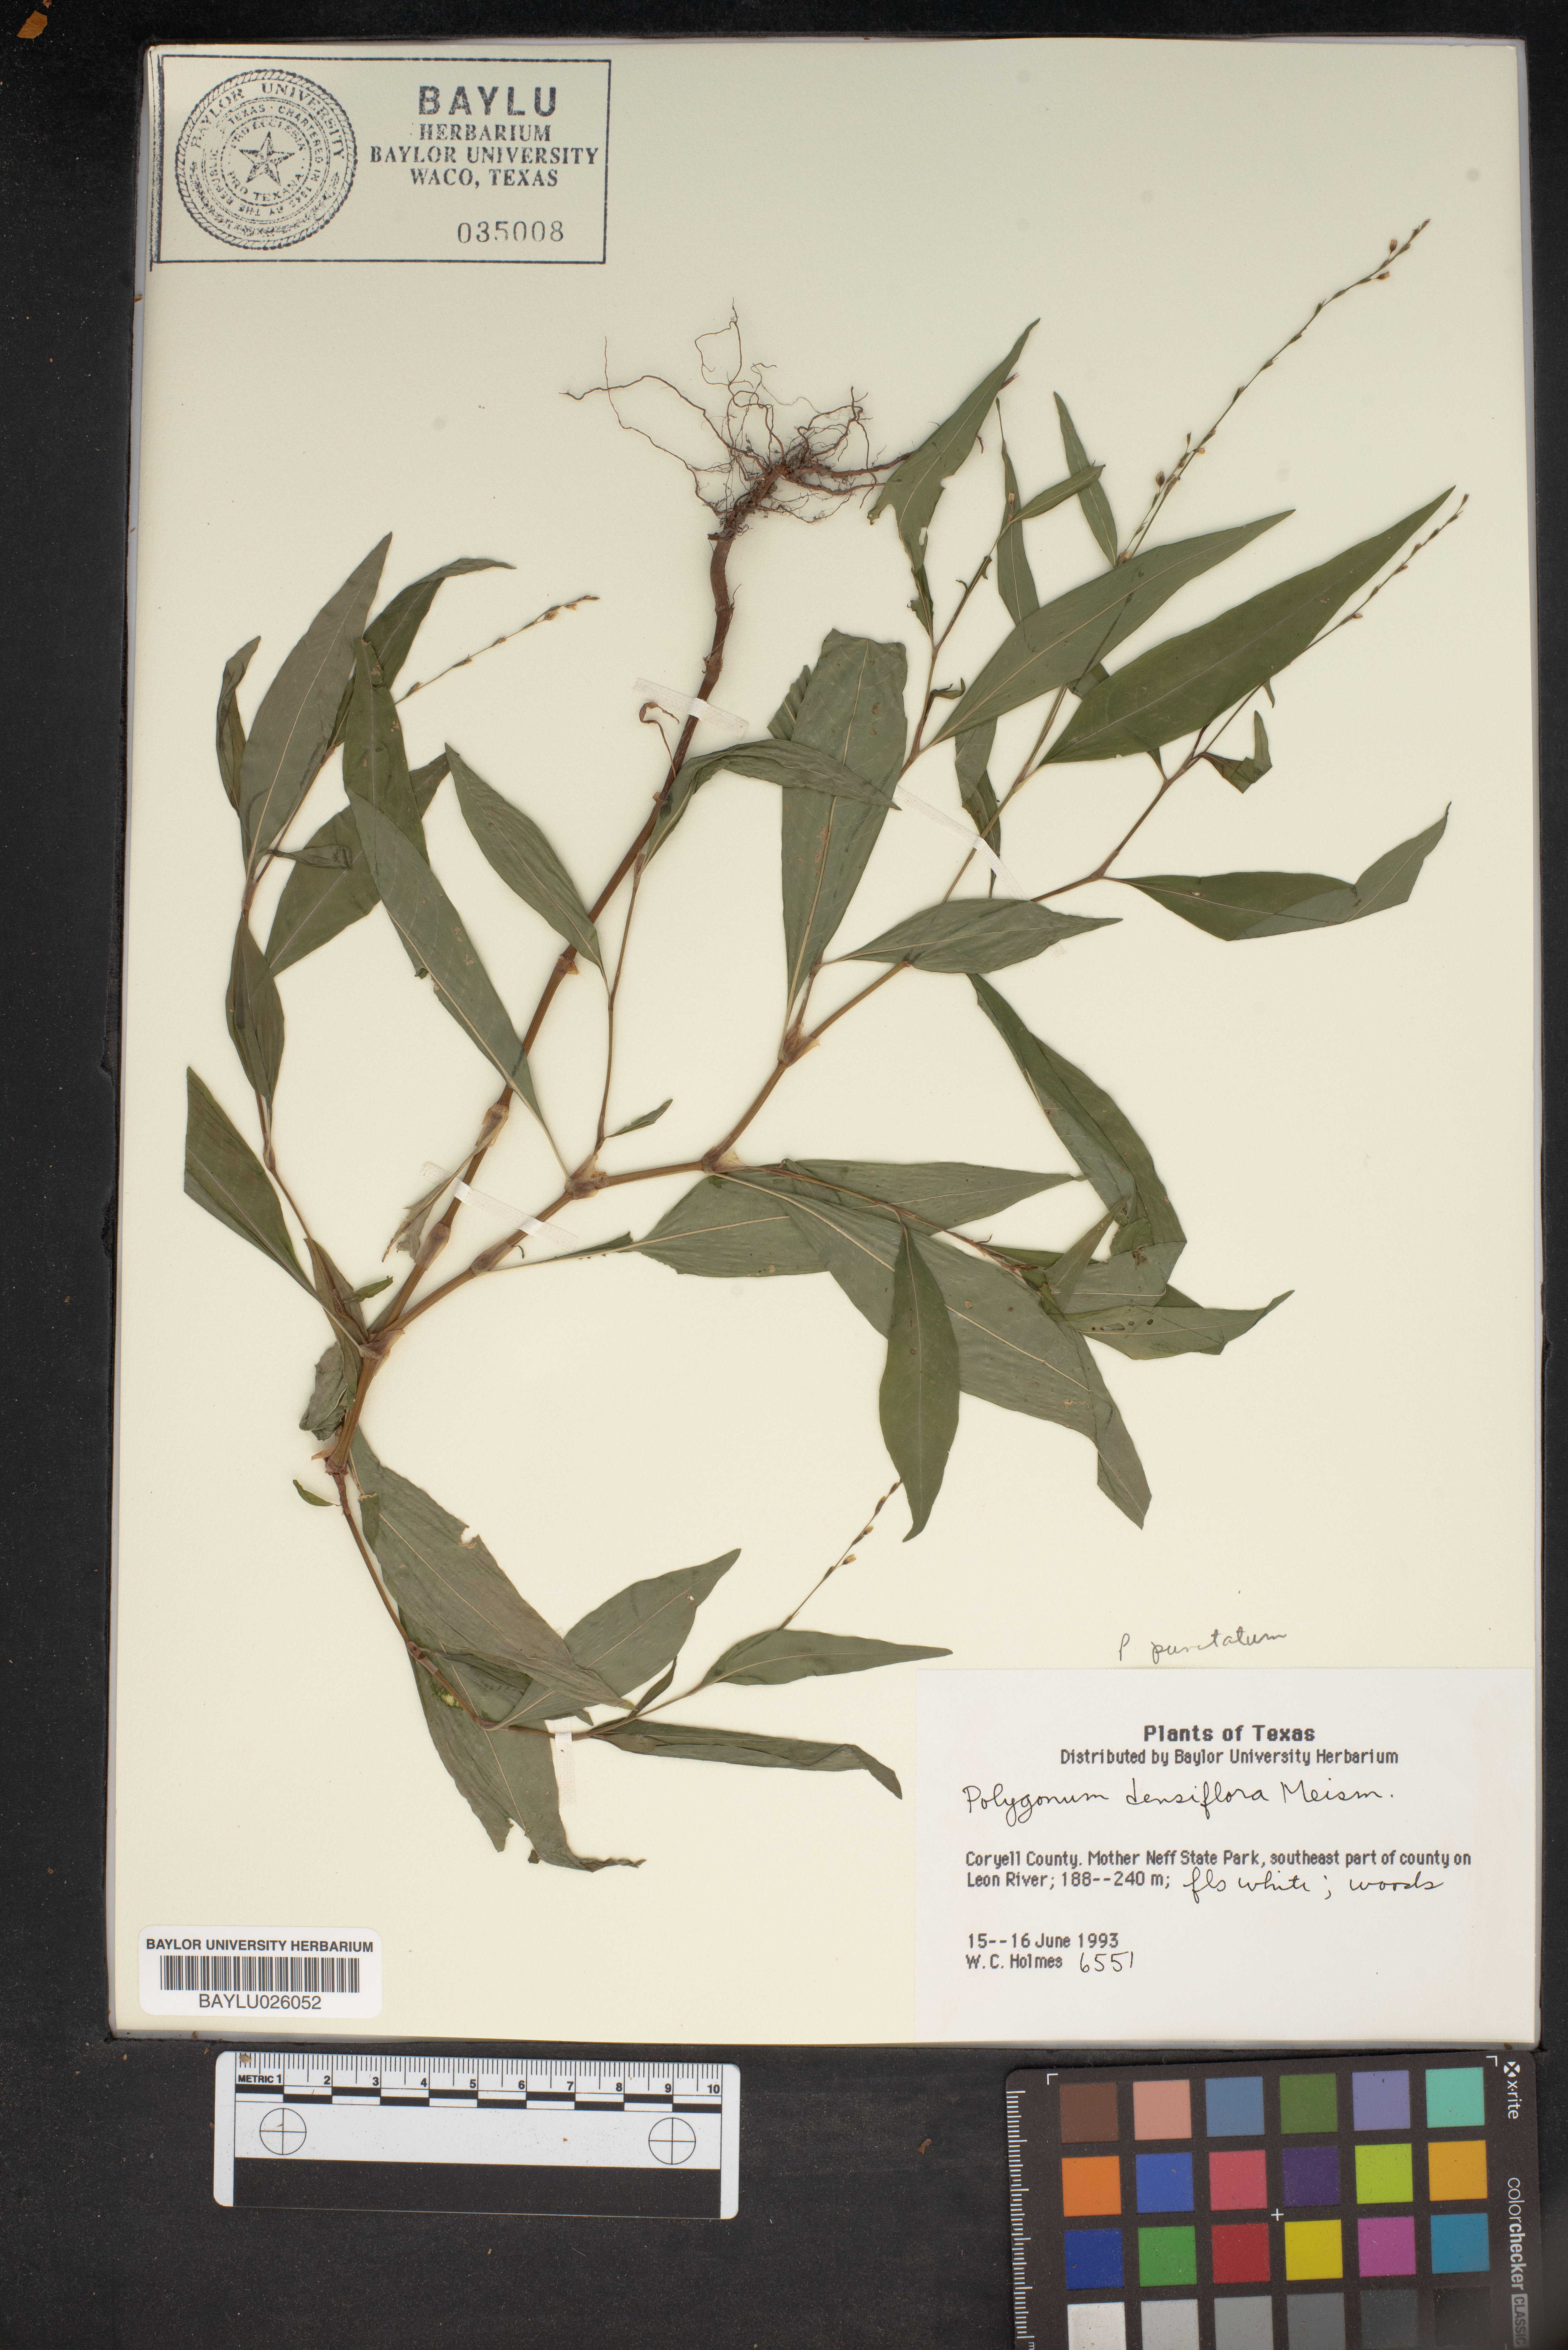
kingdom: Plantae
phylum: Tracheophyta
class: Magnoliopsida
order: Caryophyllales
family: Polygonaceae
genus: Persicaria
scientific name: Persicaria glabra
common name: Denseflower knotweed
